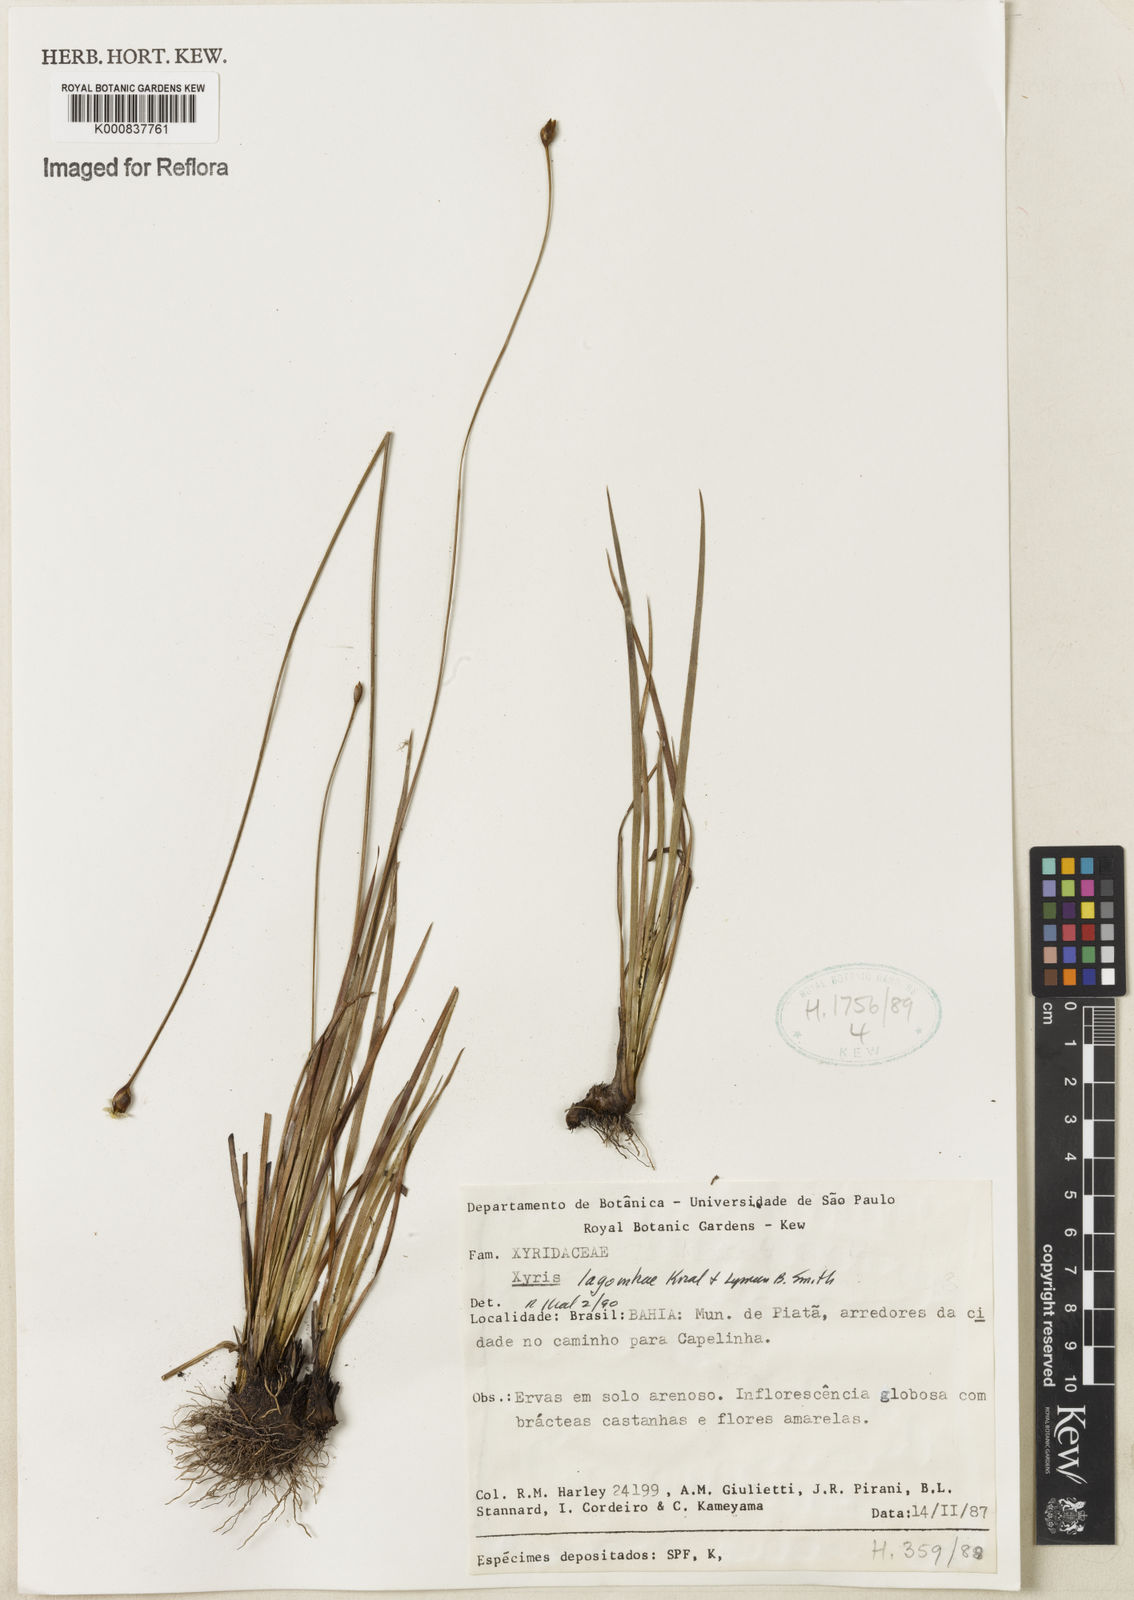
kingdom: Plantae
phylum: Tracheophyta
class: Liliopsida
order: Poales
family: Xyridaceae
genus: Xyris
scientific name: Xyris
